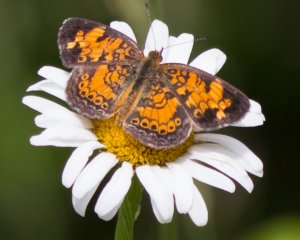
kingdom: Animalia
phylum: Arthropoda
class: Insecta
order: Lepidoptera
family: Nymphalidae
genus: Phyciodes
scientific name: Phyciodes tharos
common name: Pearl Crescent
